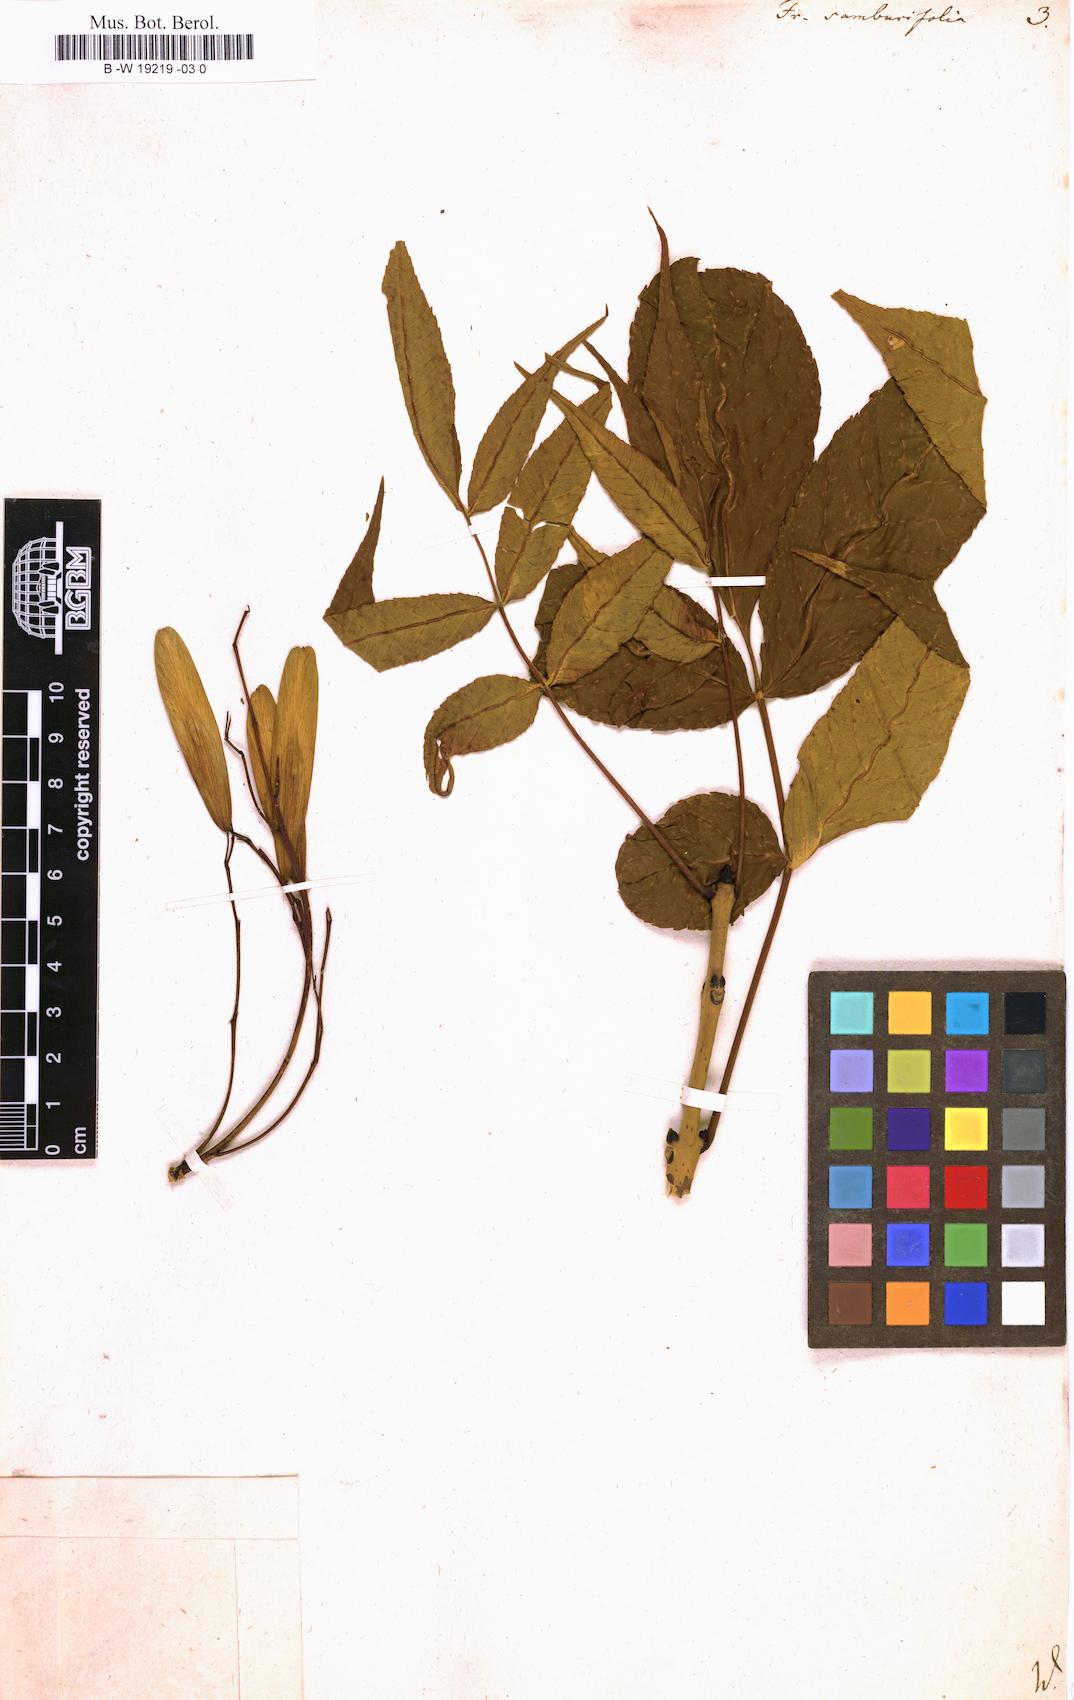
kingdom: Plantae
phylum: Tracheophyta
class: Magnoliopsida
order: Lamiales
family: Oleaceae
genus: Fraxinus
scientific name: Fraxinus nigra
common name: Black ash
